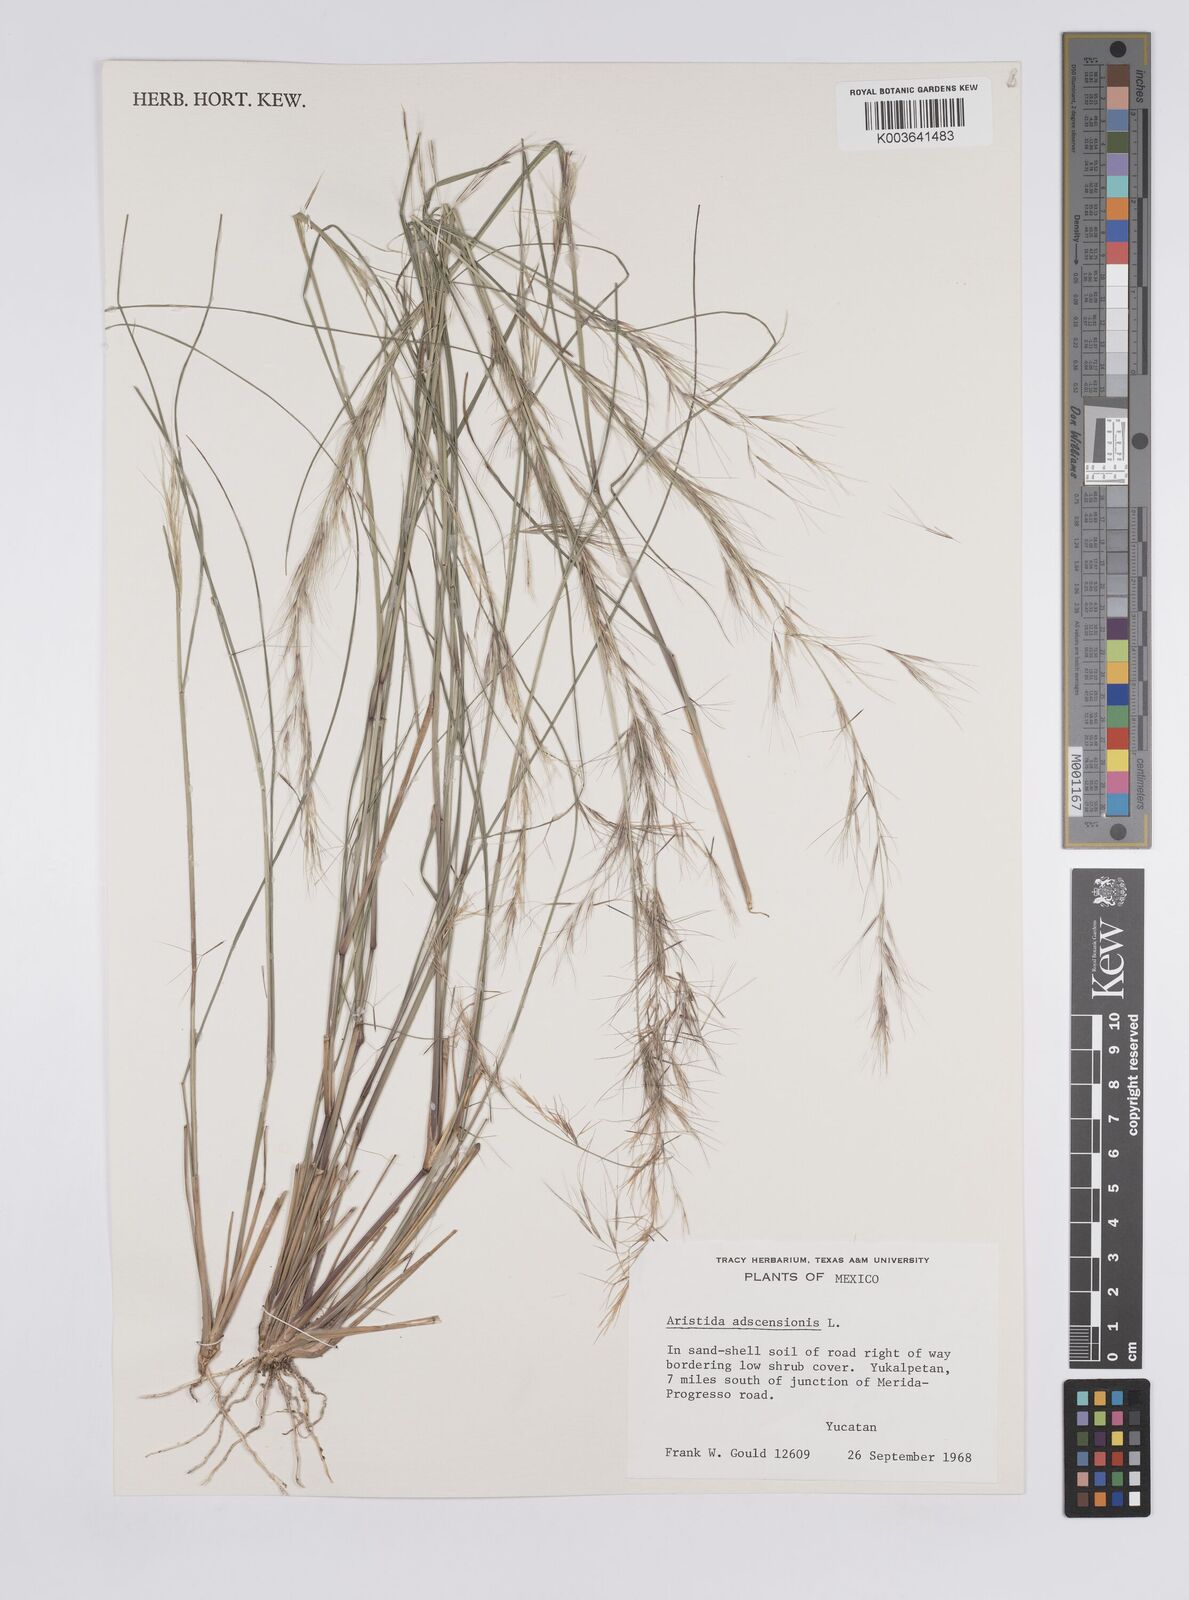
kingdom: Plantae
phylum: Tracheophyta
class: Liliopsida
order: Poales
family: Poaceae
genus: Aristida
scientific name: Aristida adscensionis
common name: Sixweeks threeawn
